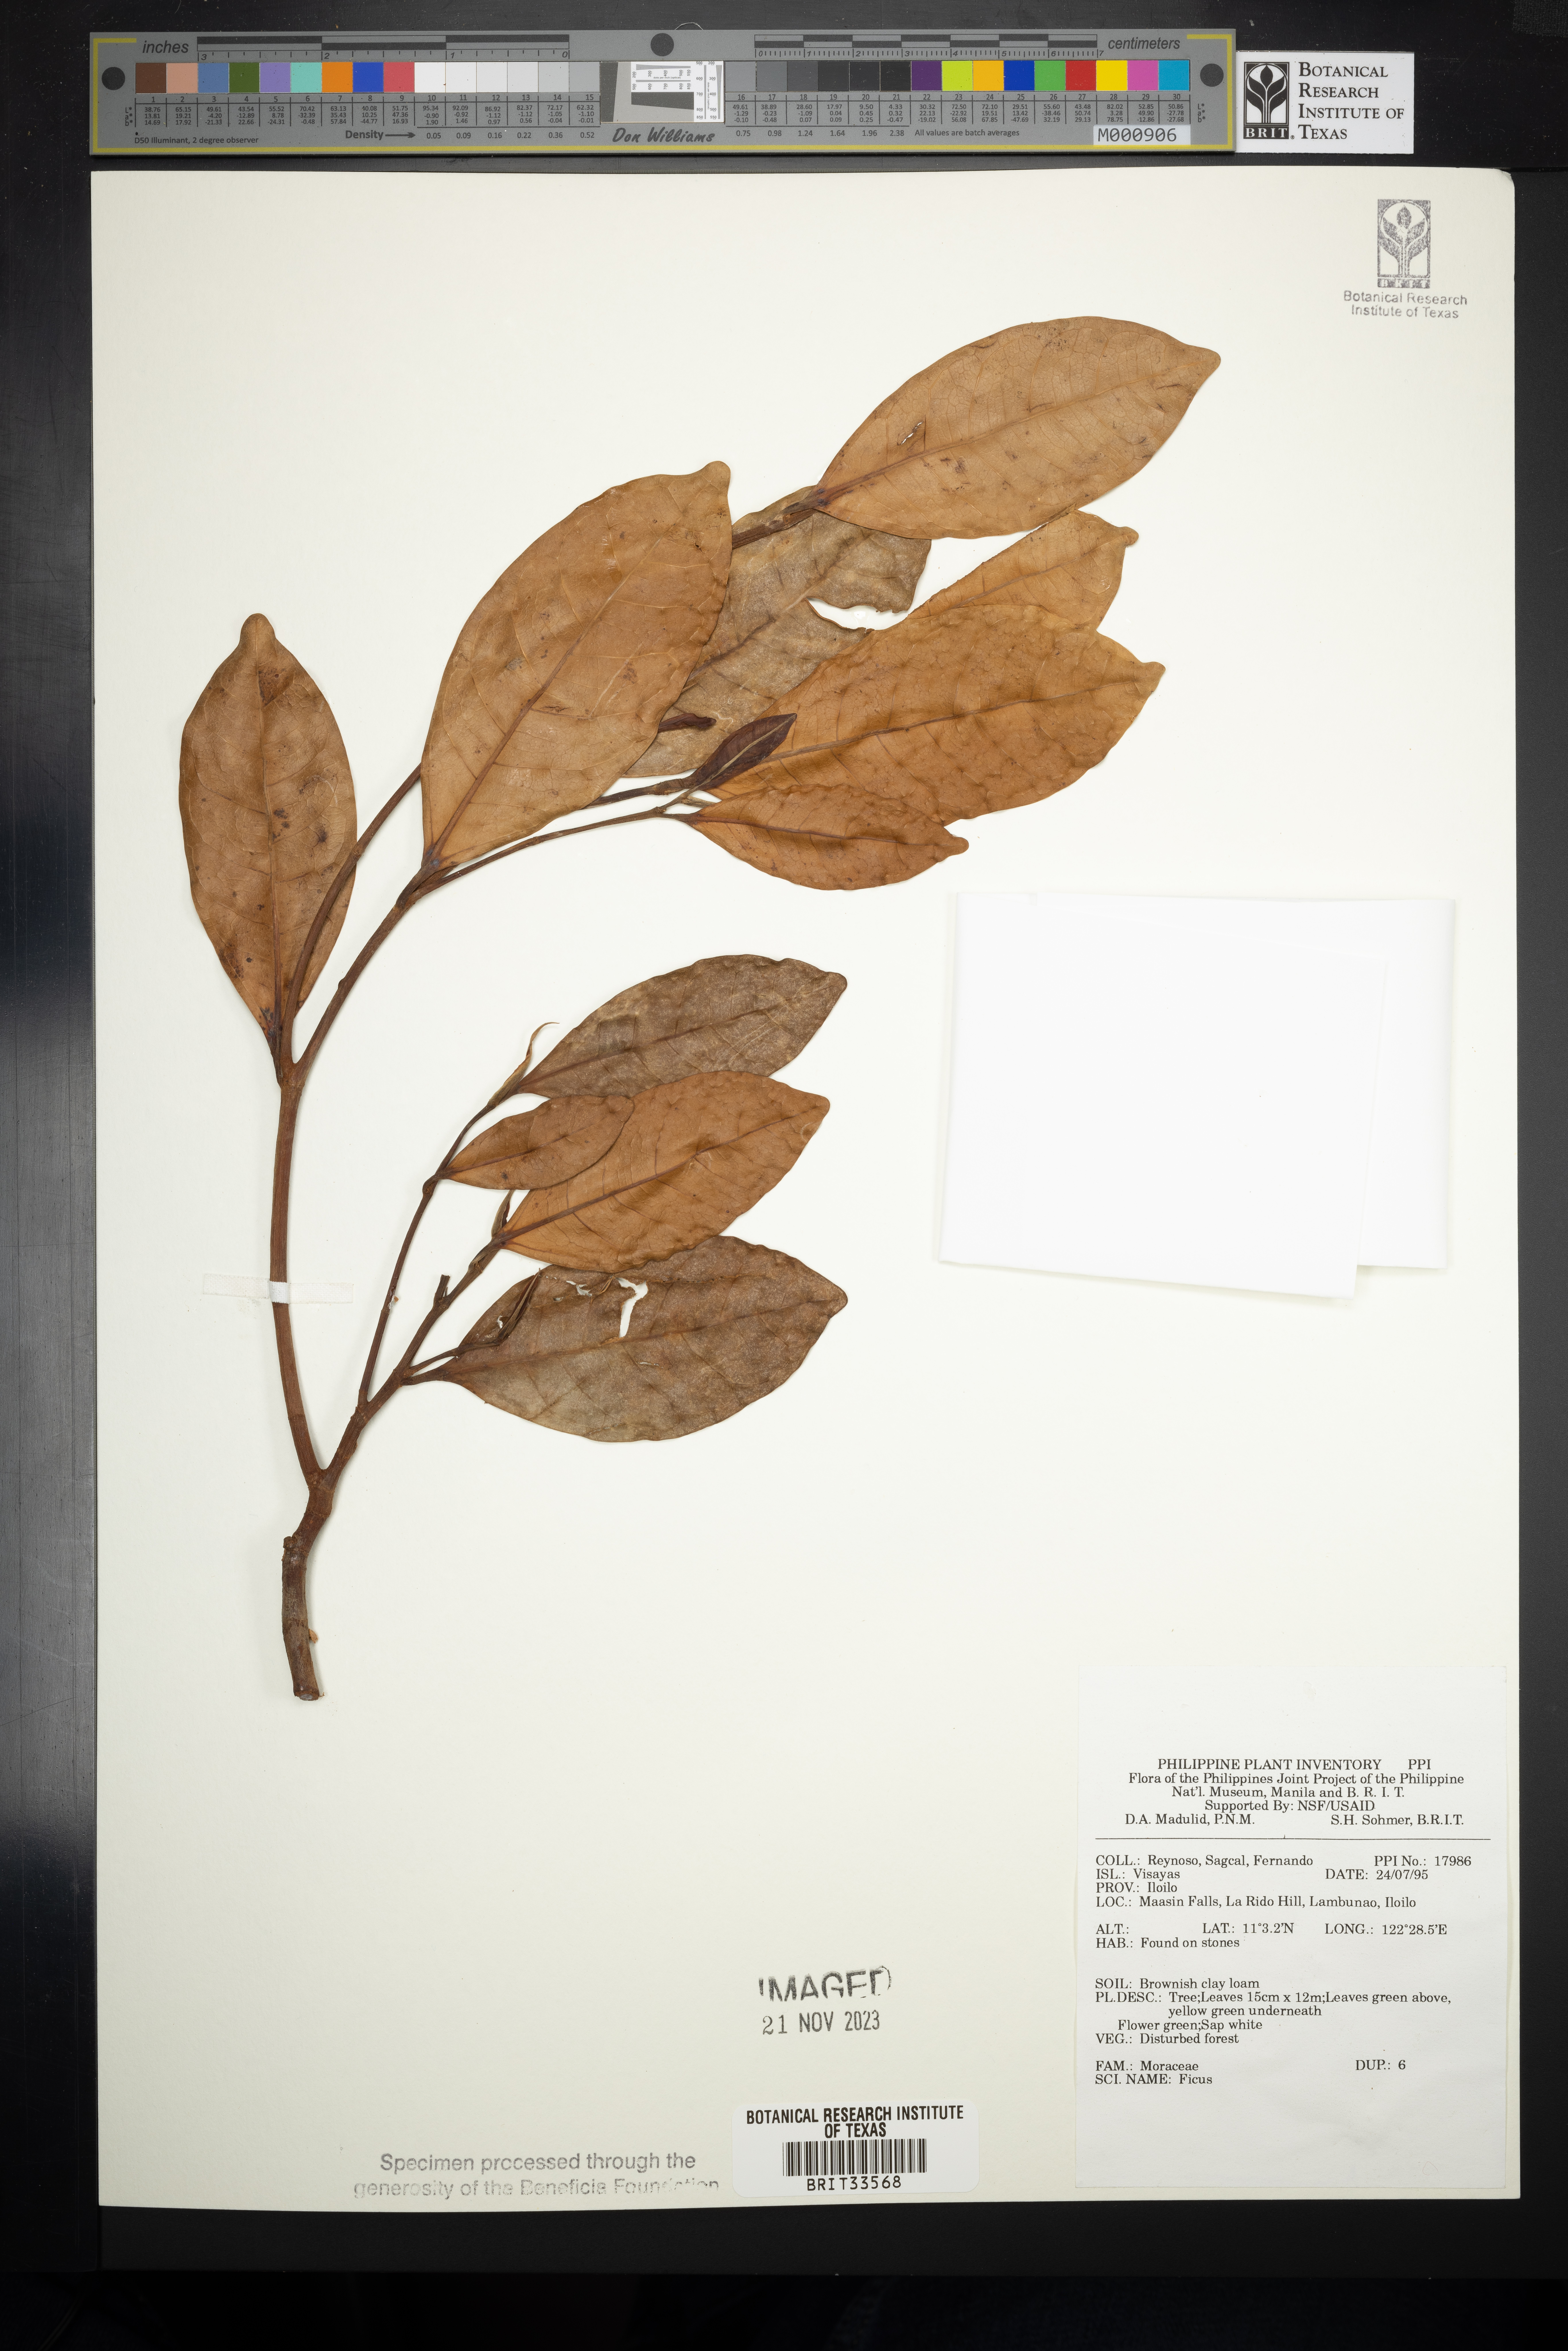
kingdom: Plantae
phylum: Tracheophyta
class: Magnoliopsida
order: Rosales
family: Moraceae
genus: Ficus
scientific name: Ficus
